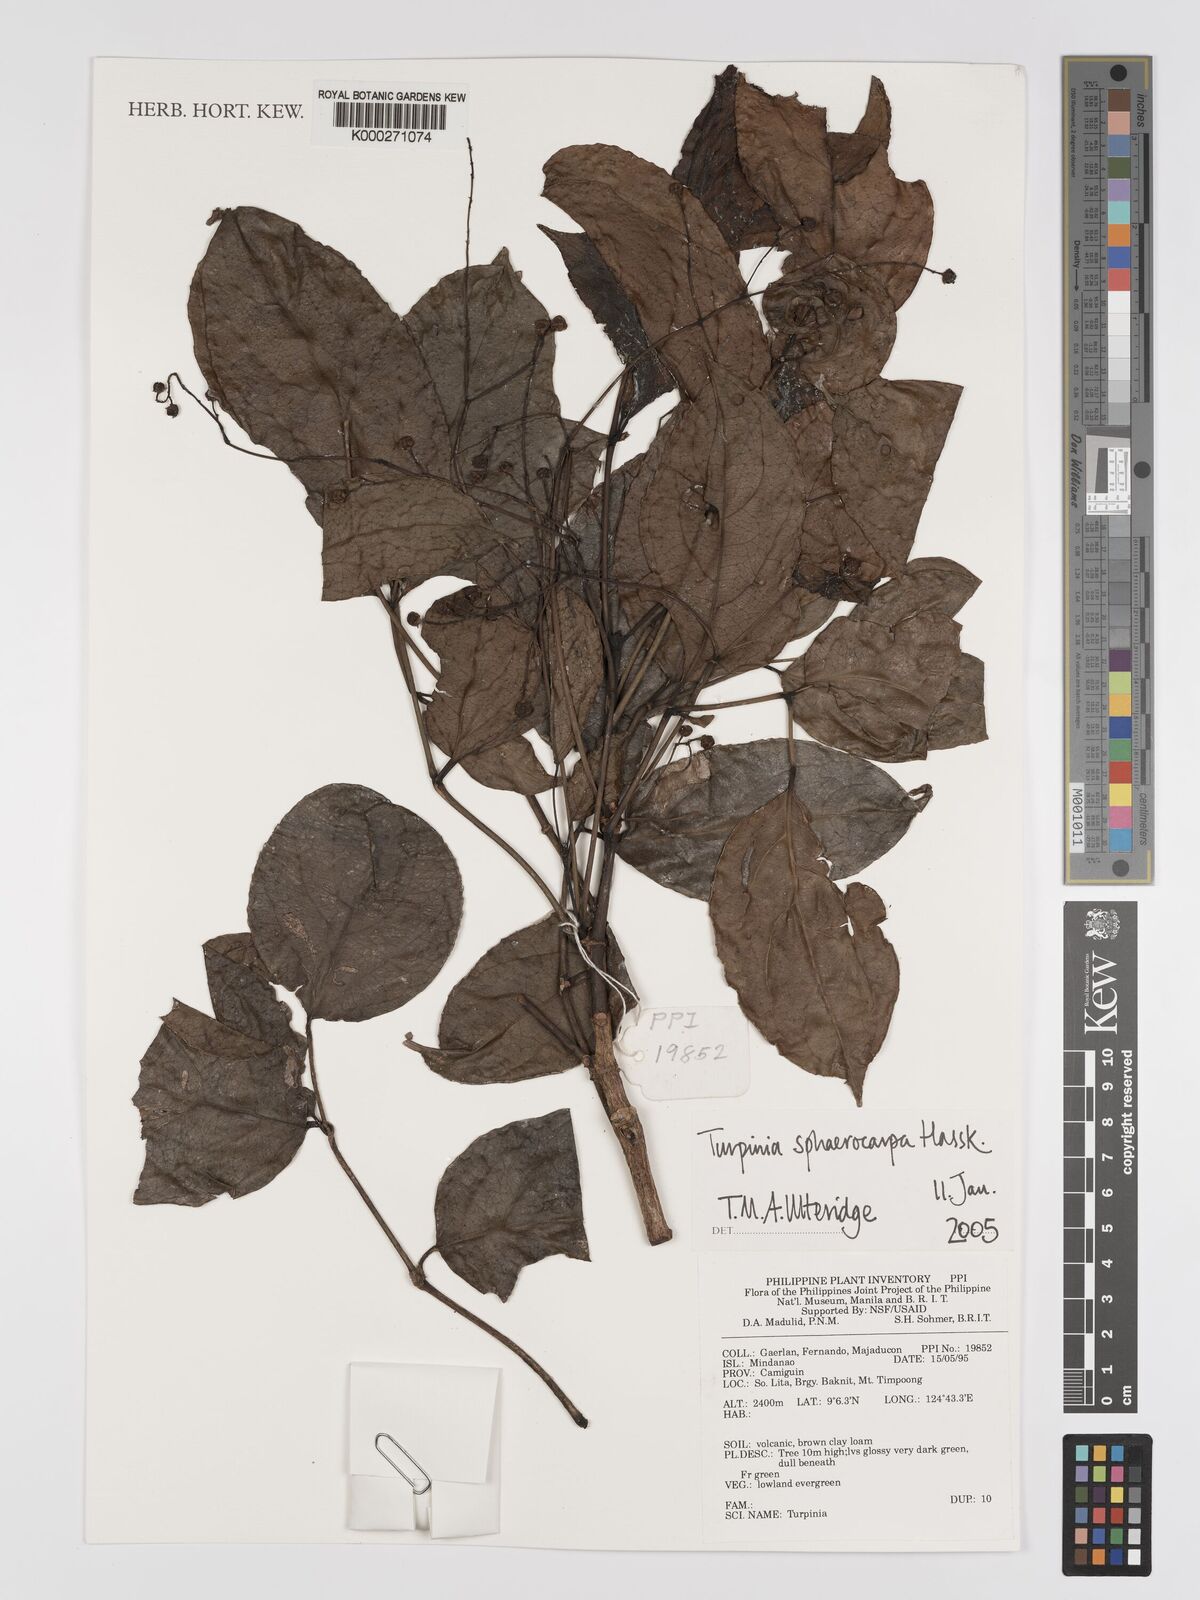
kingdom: Plantae
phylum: Tracheophyta
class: Magnoliopsida
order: Crossosomatales
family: Staphyleaceae
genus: Dalrympelea
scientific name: Dalrympelea sphaerocarpa
